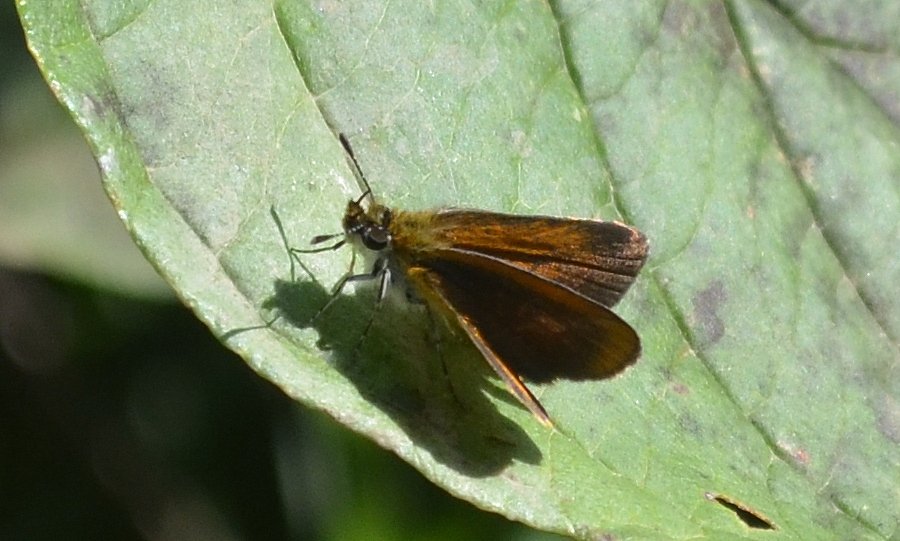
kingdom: Animalia
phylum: Arthropoda
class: Insecta
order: Lepidoptera
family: Hesperiidae
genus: Ancyloxypha
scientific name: Ancyloxypha numitor
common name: Least Skipper
